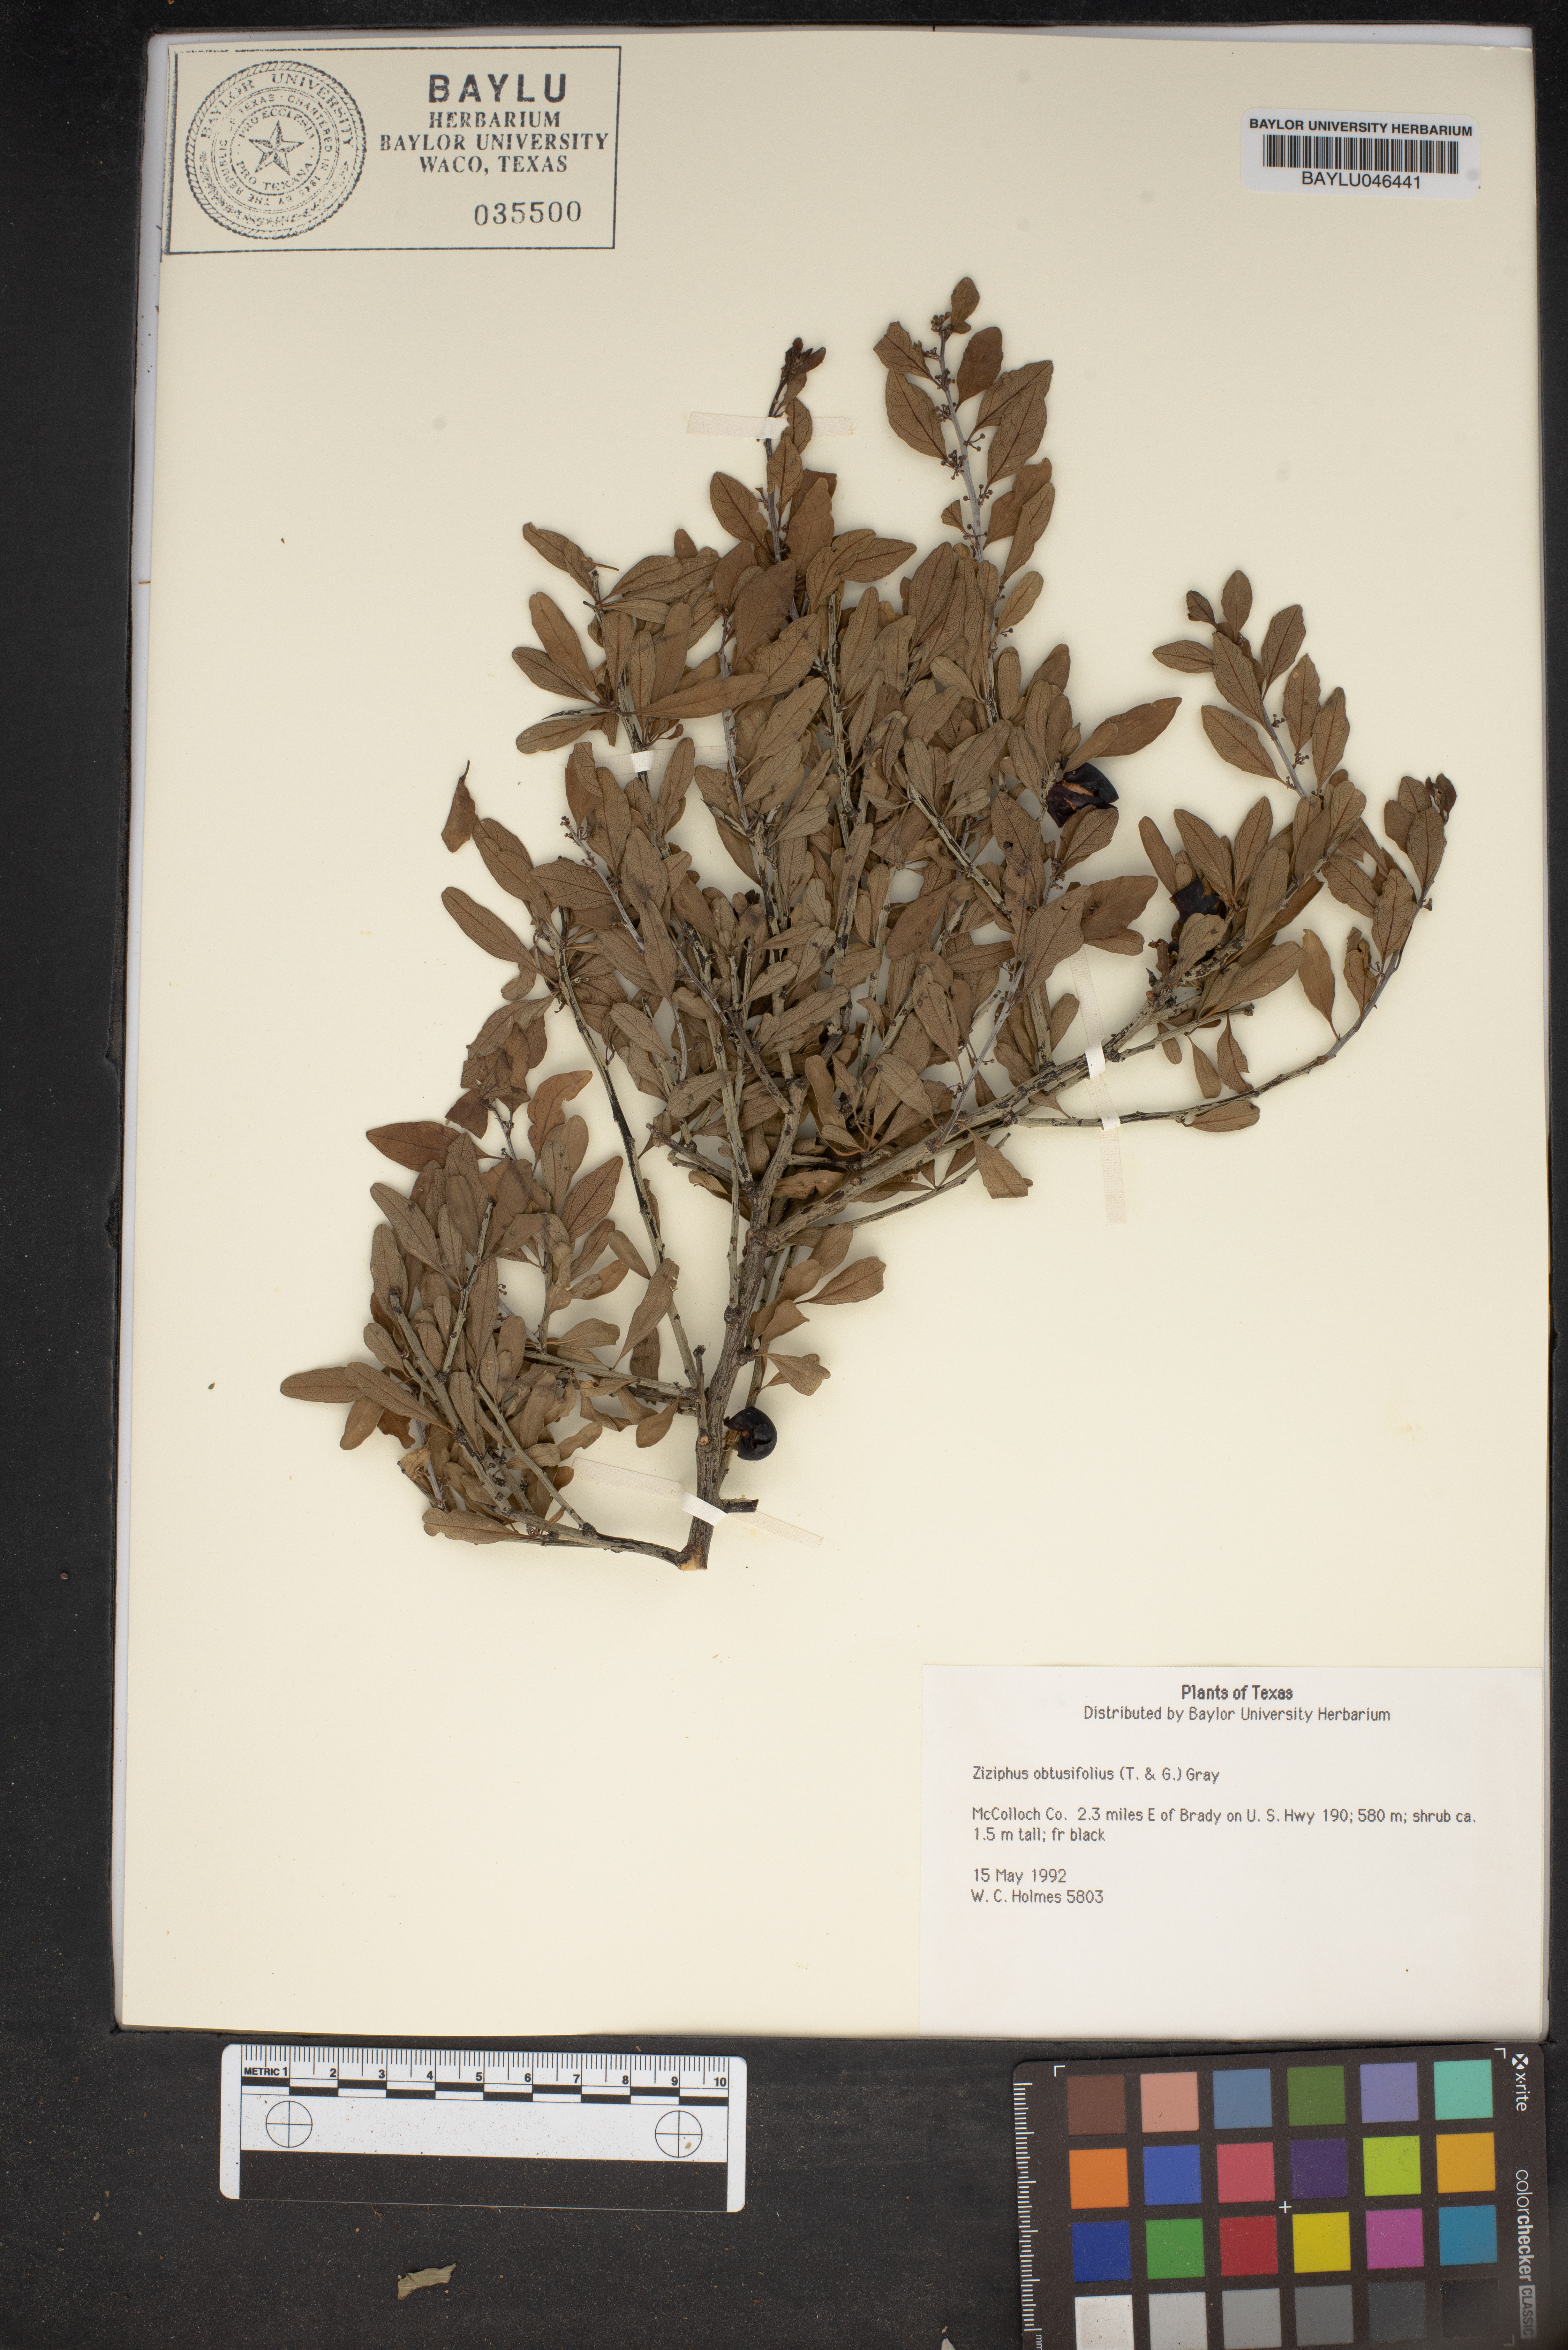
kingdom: Plantae
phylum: Tracheophyta
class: Magnoliopsida
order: Rosales
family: Rhamnaceae
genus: Sarcomphalus
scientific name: Sarcomphalus obtusifolius
